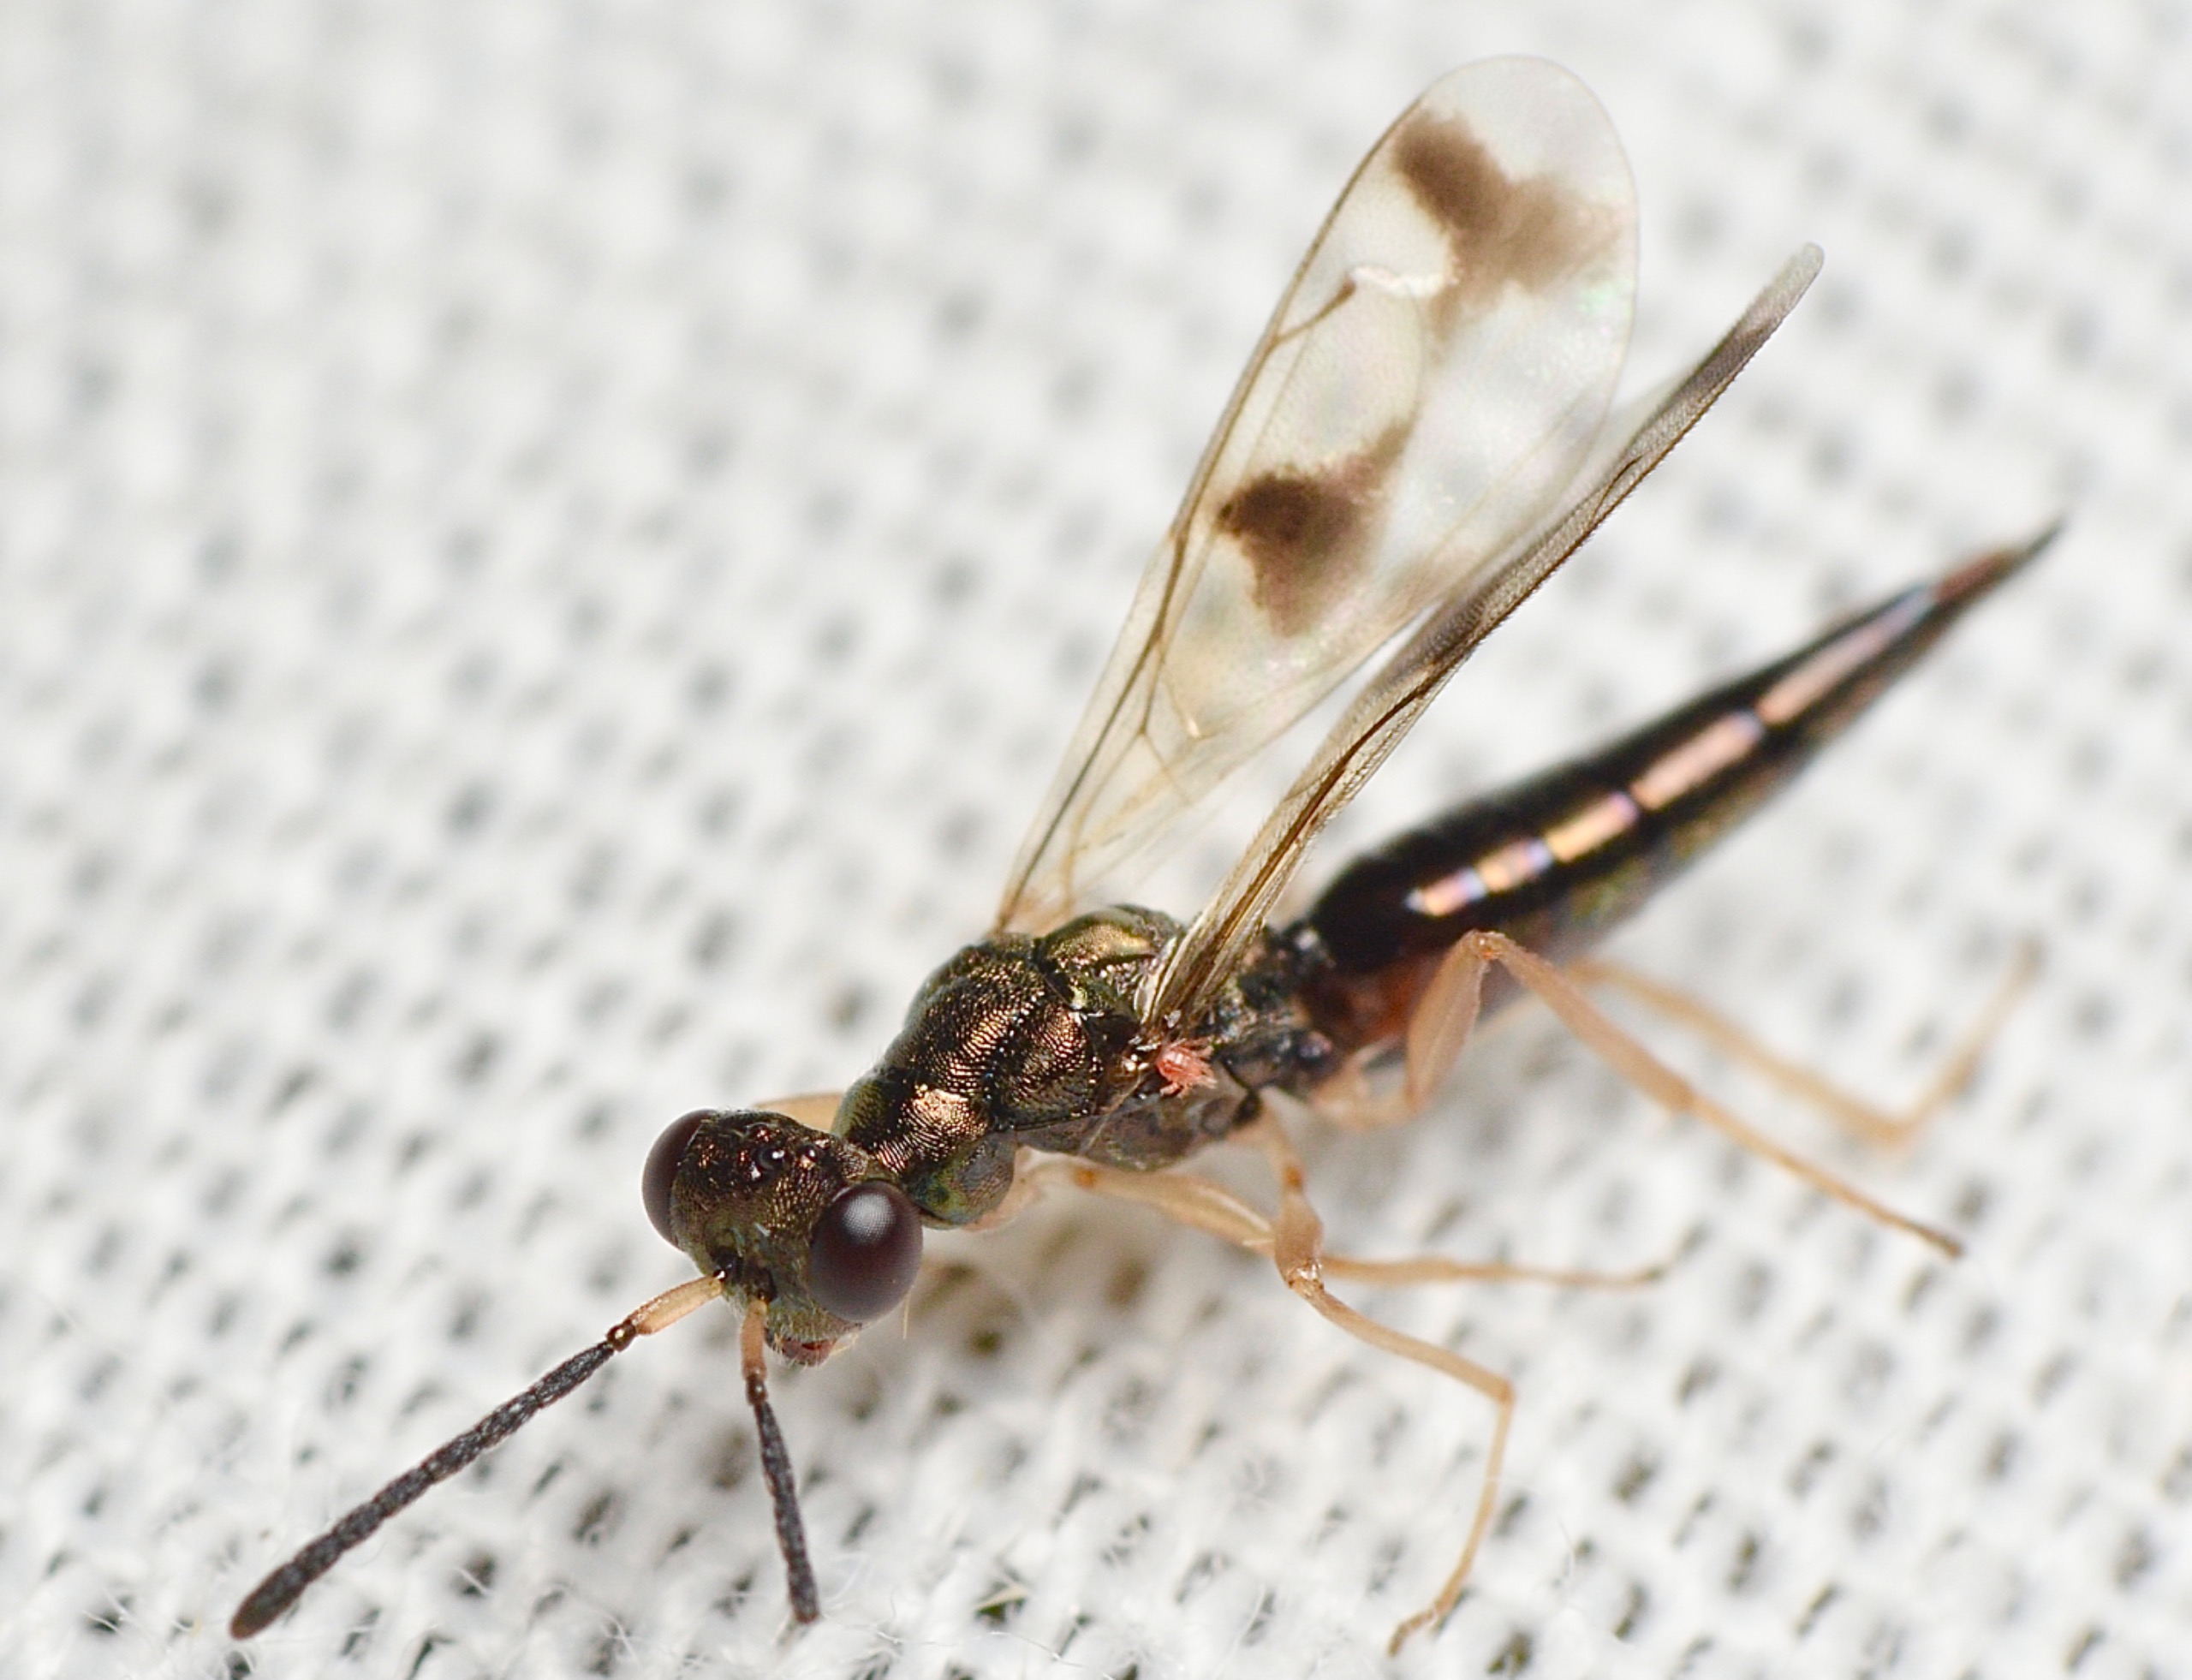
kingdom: Animalia
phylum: Arthropoda
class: Insecta
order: Hymenoptera
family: Pteromalidae
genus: Gastracanthus
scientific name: Gastracanthus pulcherrimus
